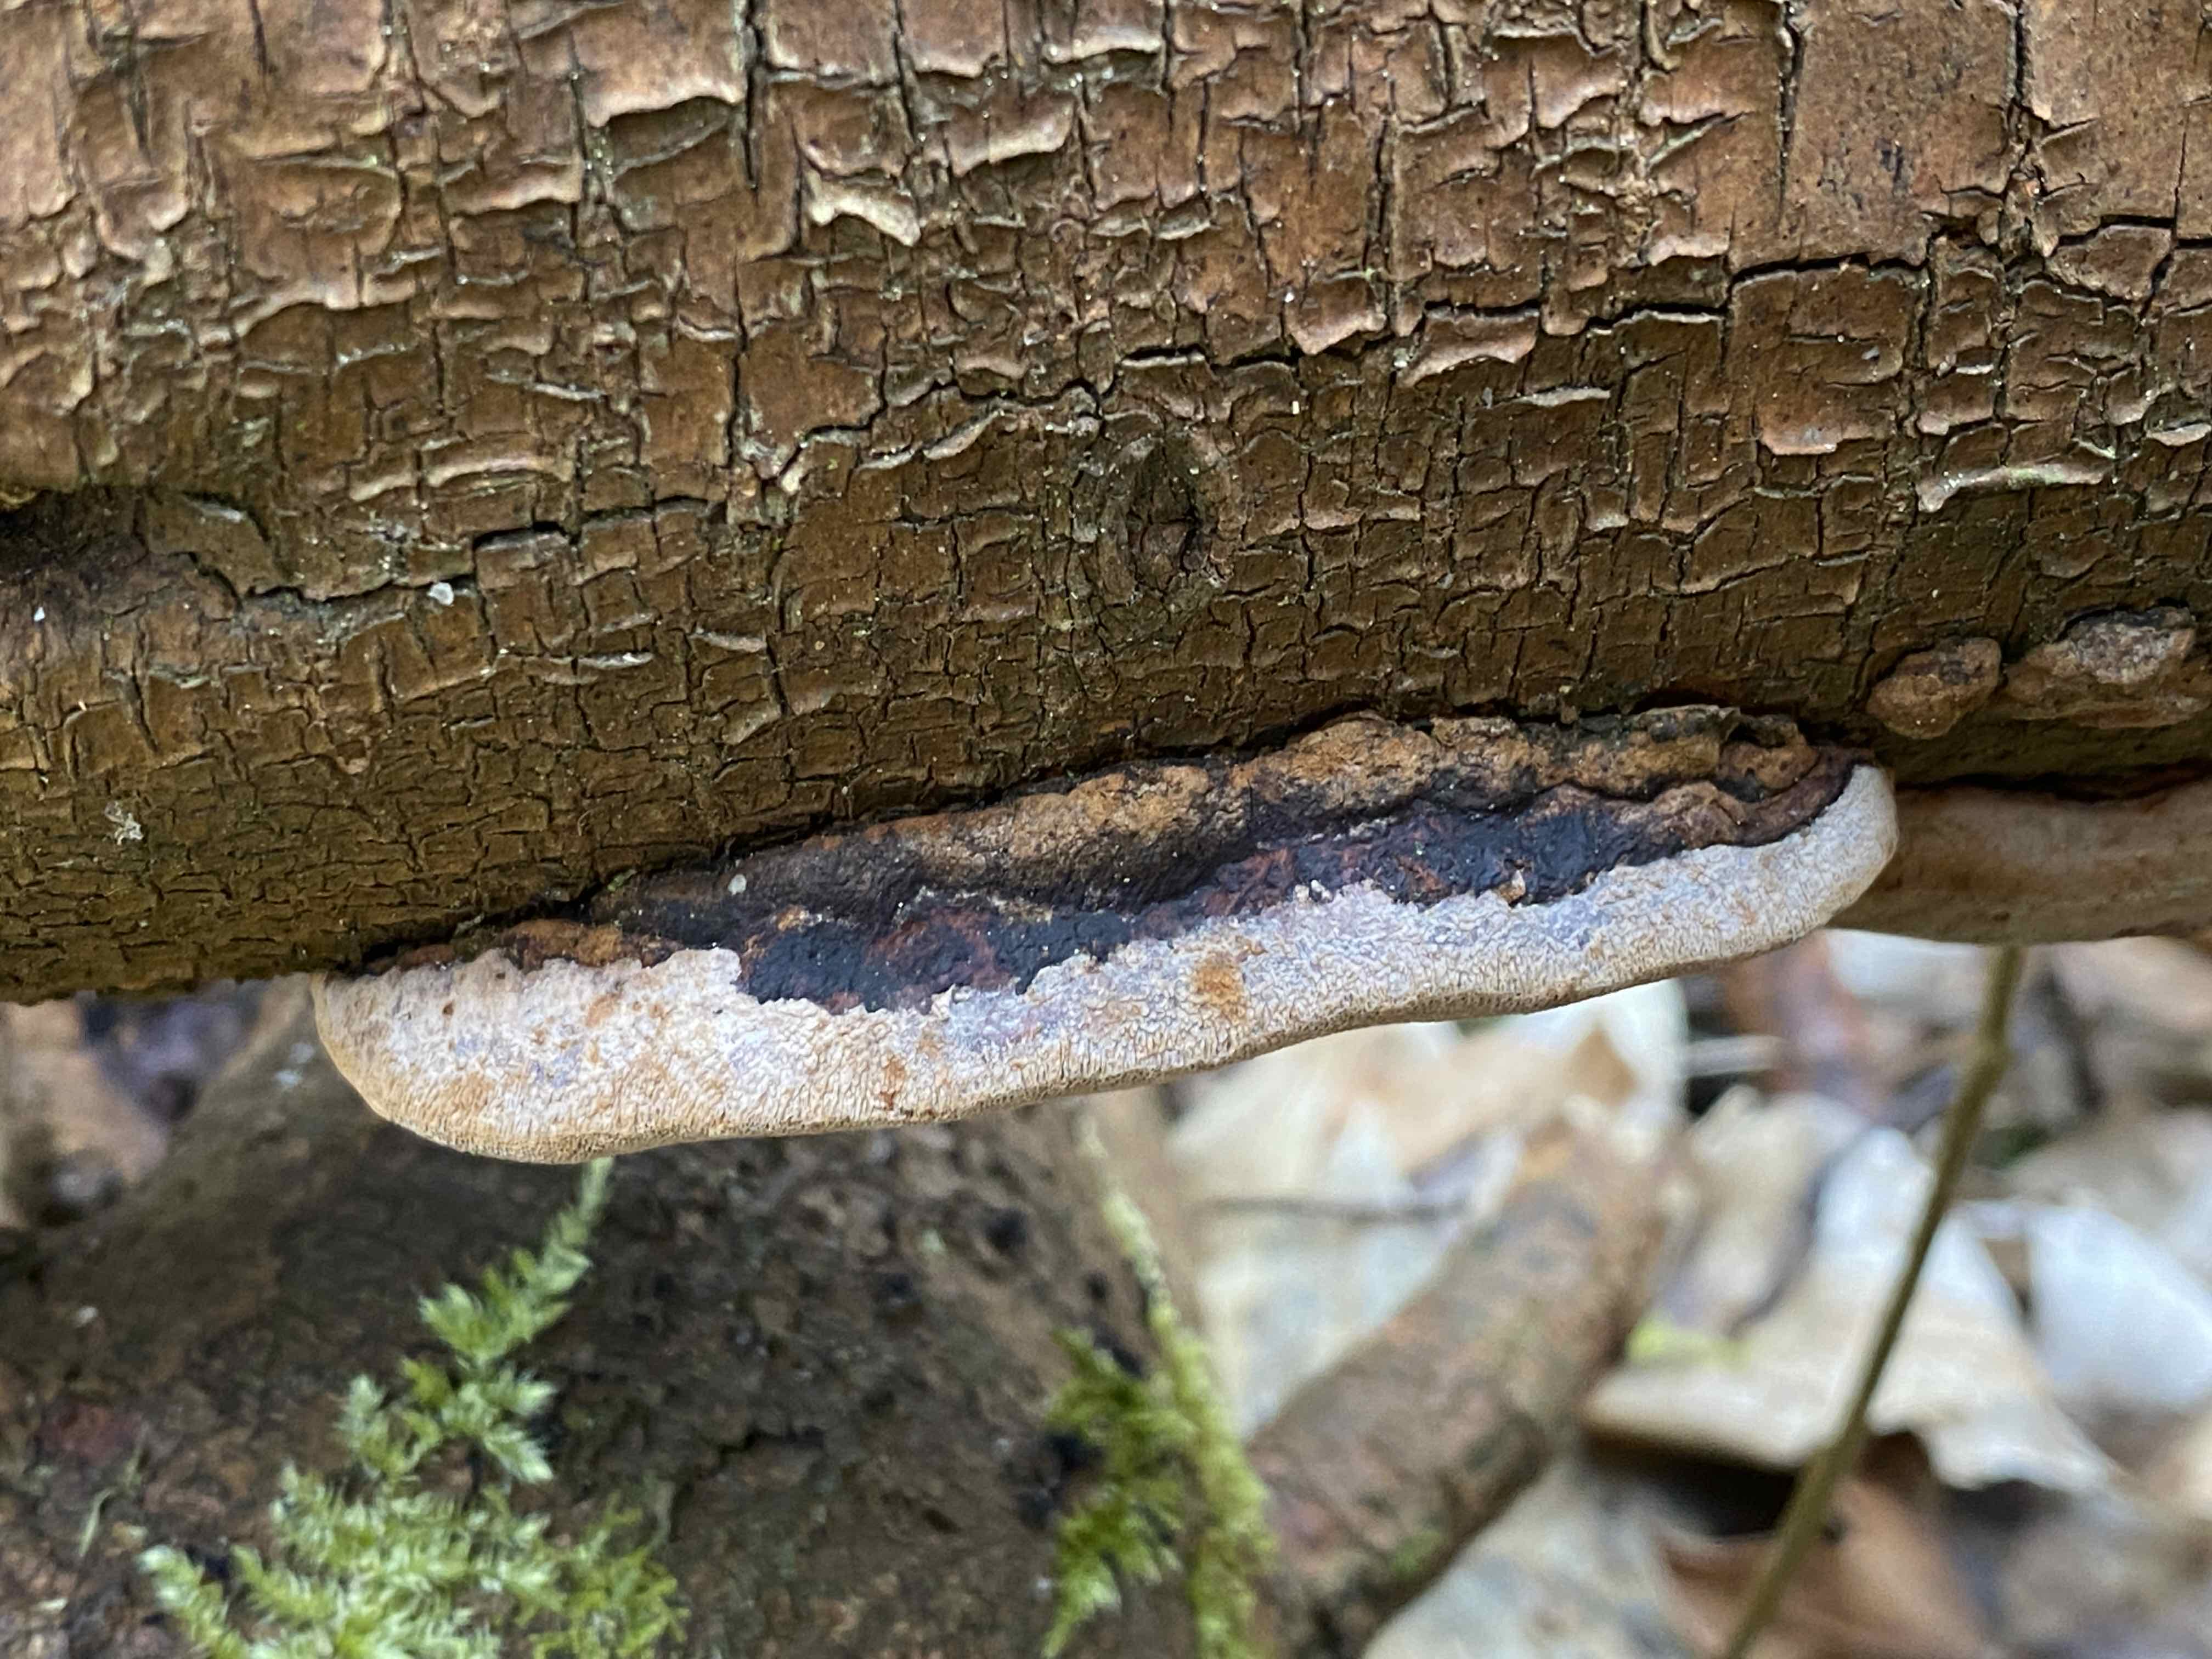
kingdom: Fungi
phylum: Basidiomycota
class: Agaricomycetes
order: Hymenochaetales
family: Hymenochaetaceae
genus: Phellinus
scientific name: Phellinus pomaceus
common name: blomme-ildporesvamp
